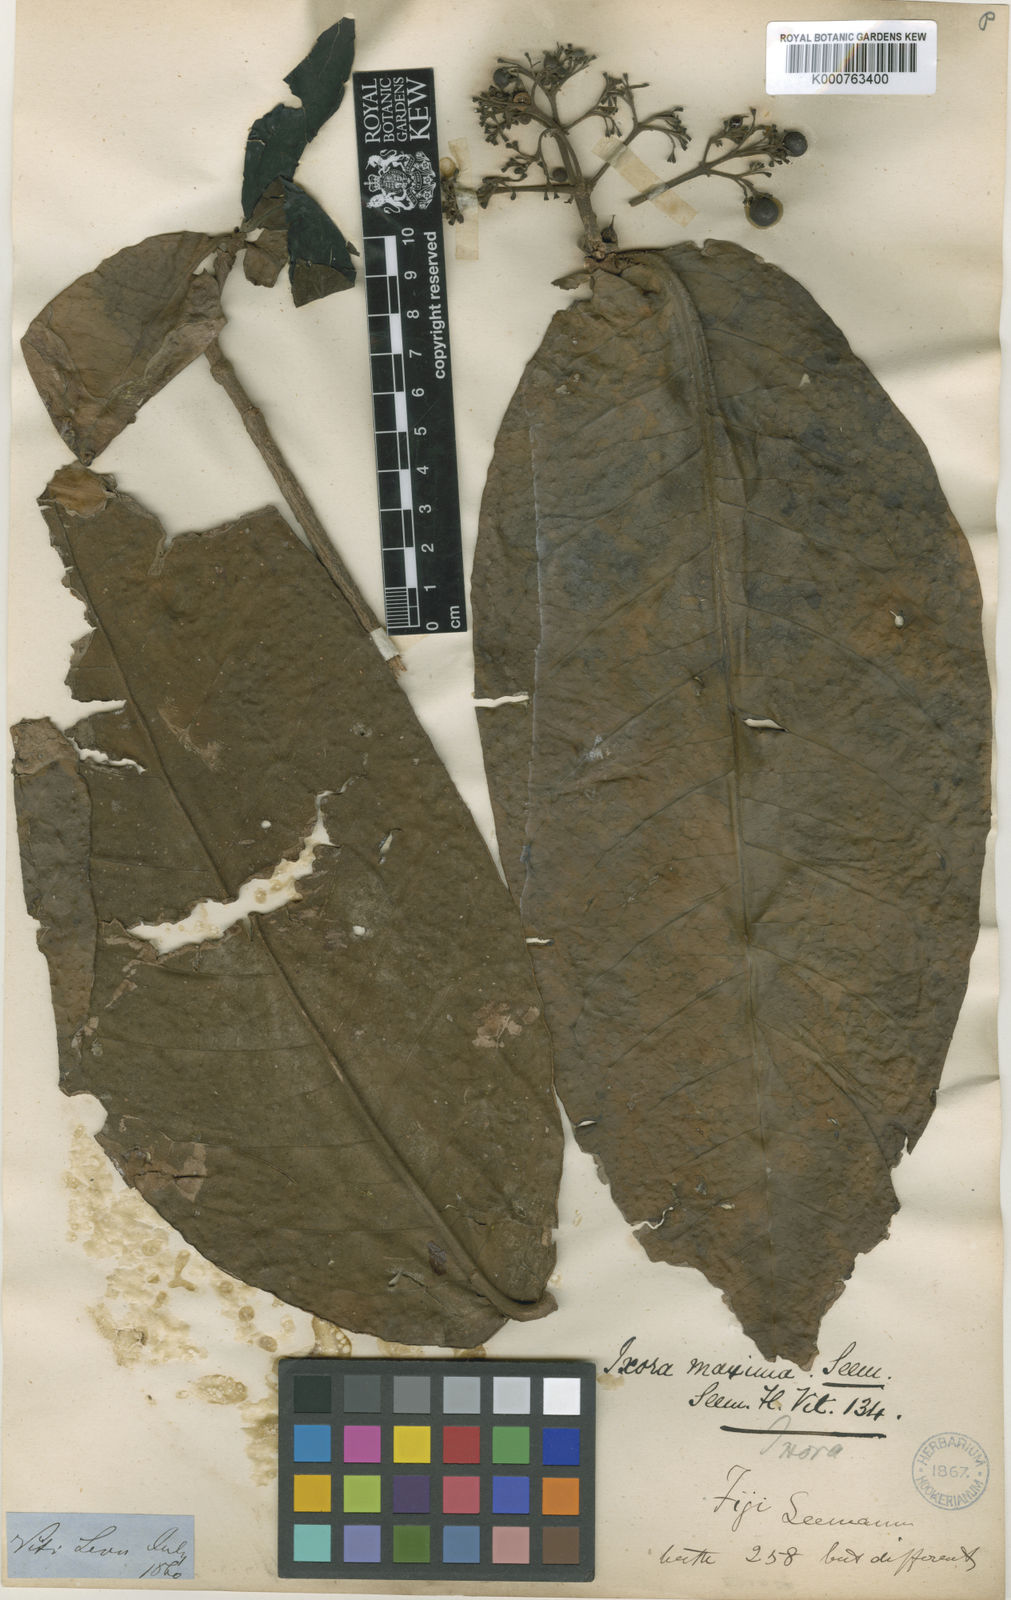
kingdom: Plantae
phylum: Tracheophyta
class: Magnoliopsida
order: Gentianales
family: Rubiaceae
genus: Ixora
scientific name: Ixora maxima
